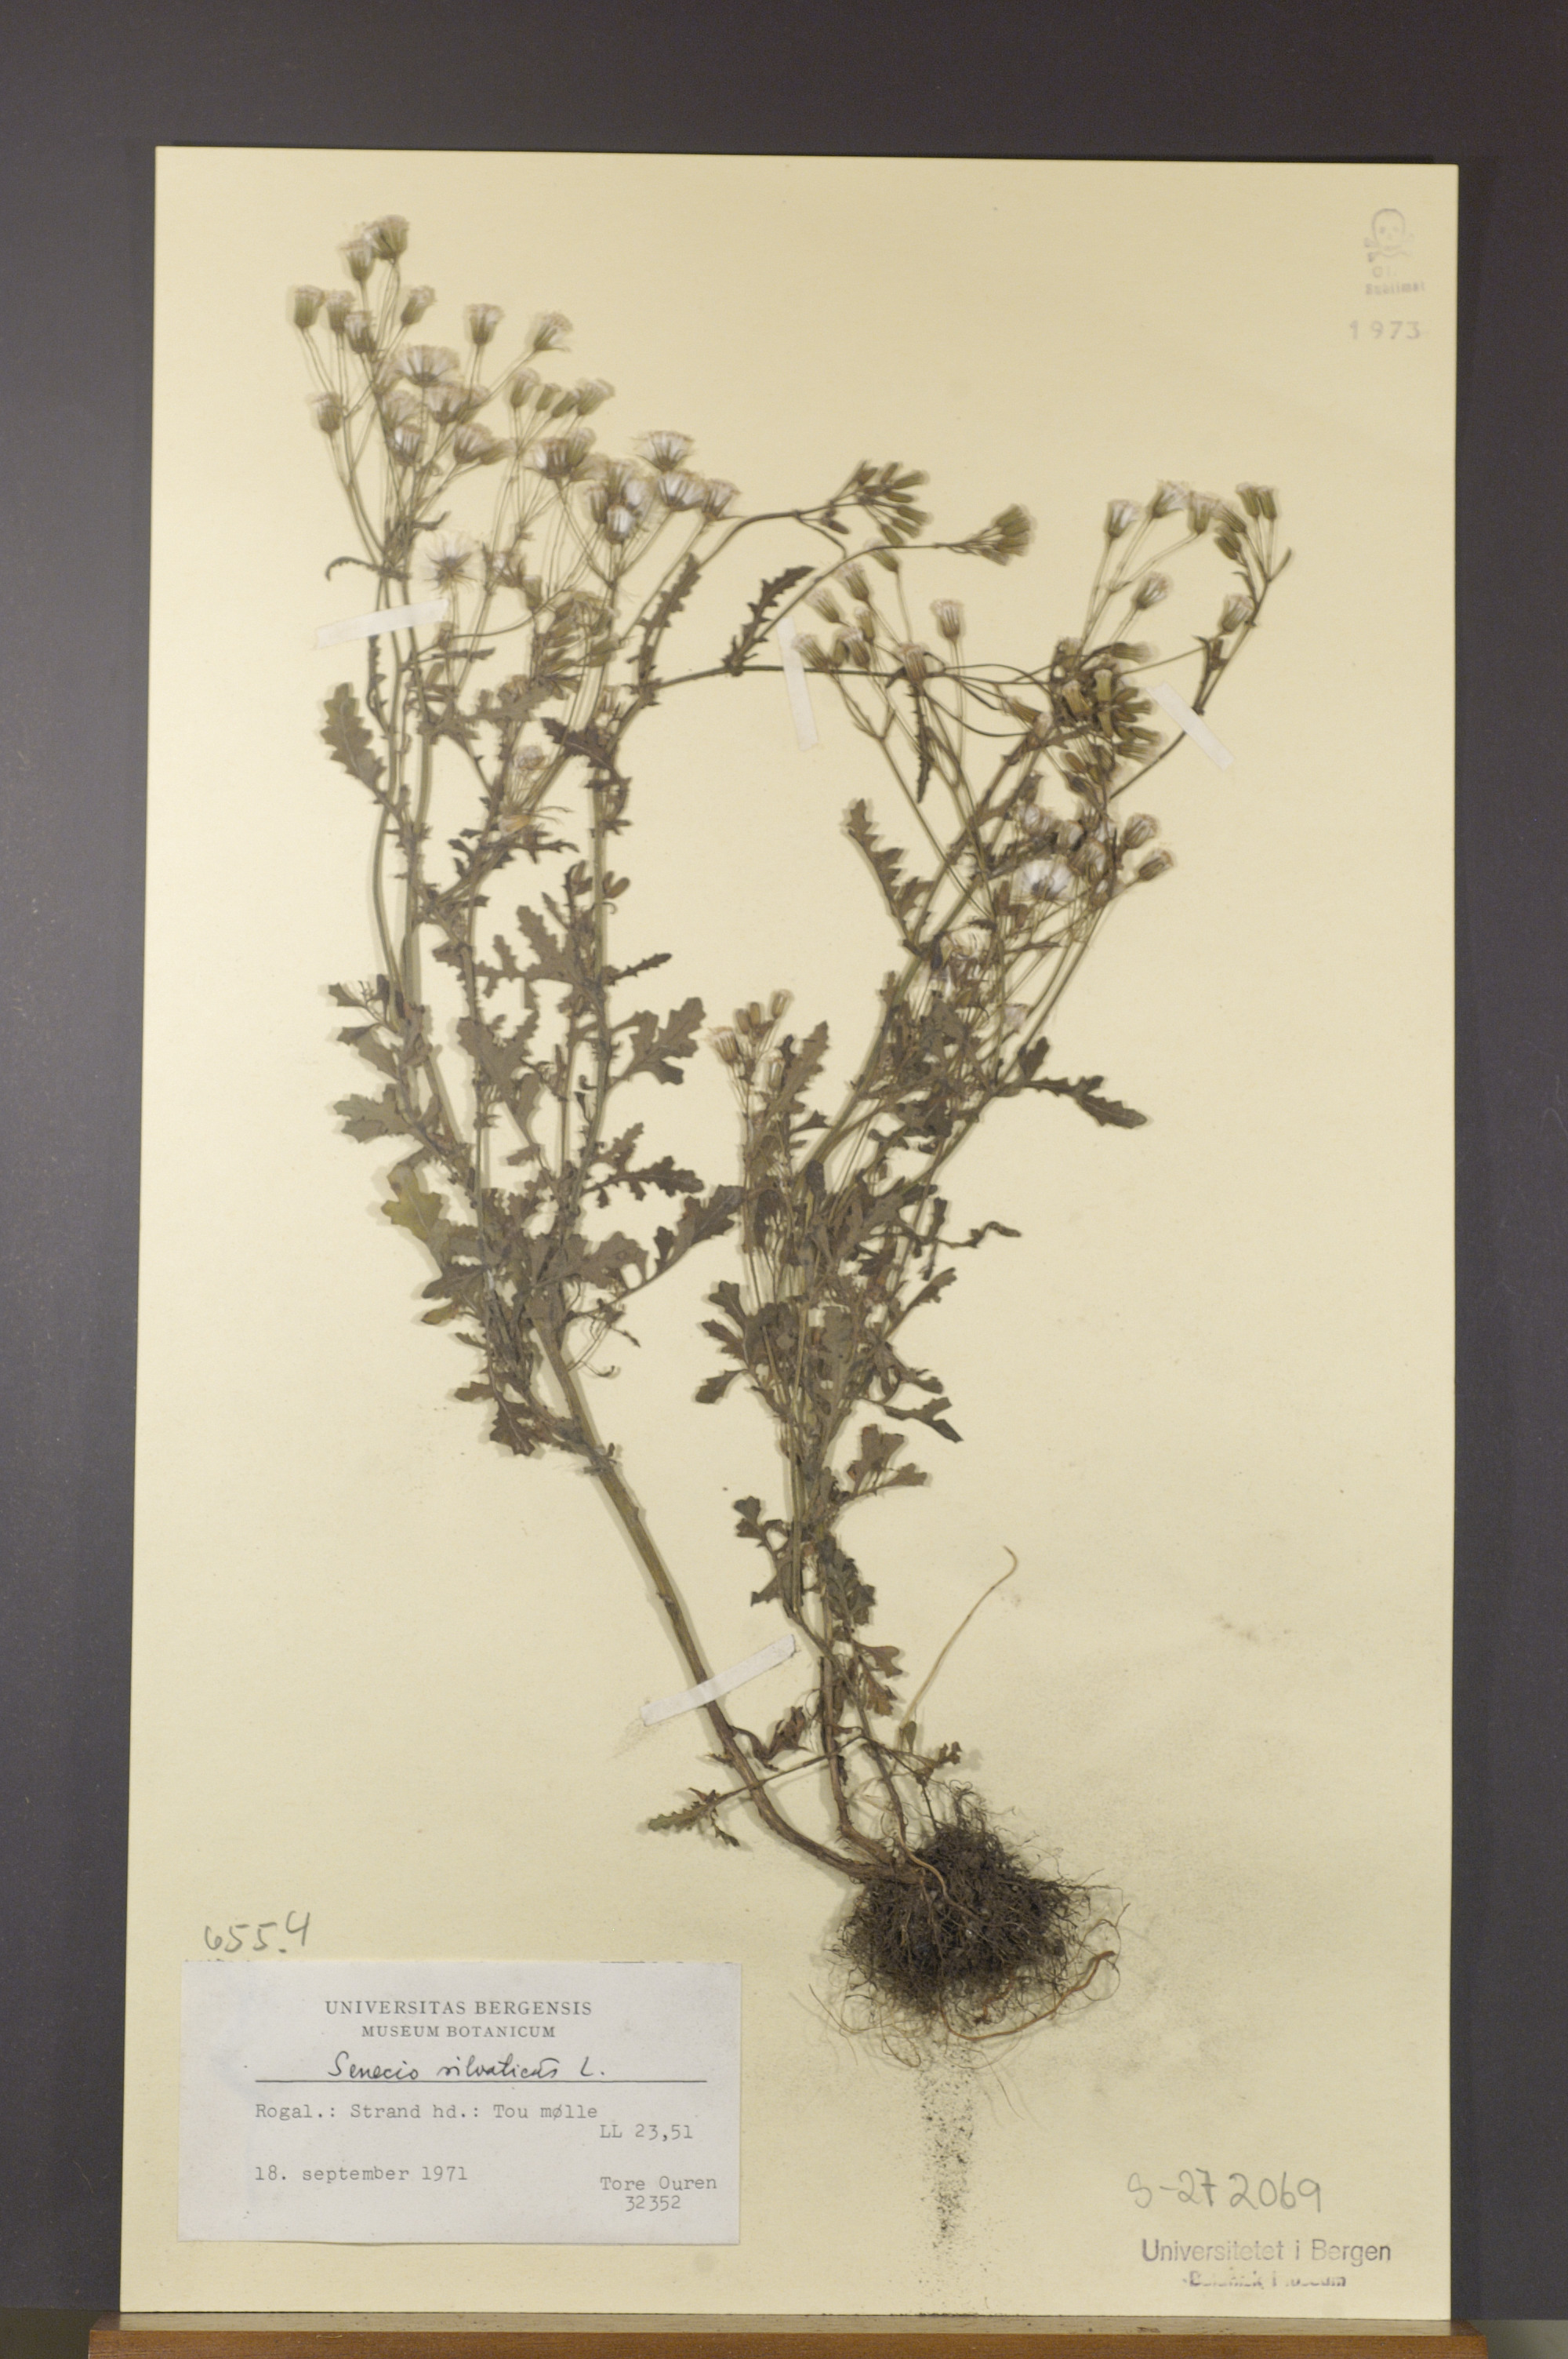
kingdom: Plantae
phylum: Tracheophyta
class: Magnoliopsida
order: Asterales
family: Asteraceae
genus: Senecio
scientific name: Senecio sylvaticus
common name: Woodland ragwort
